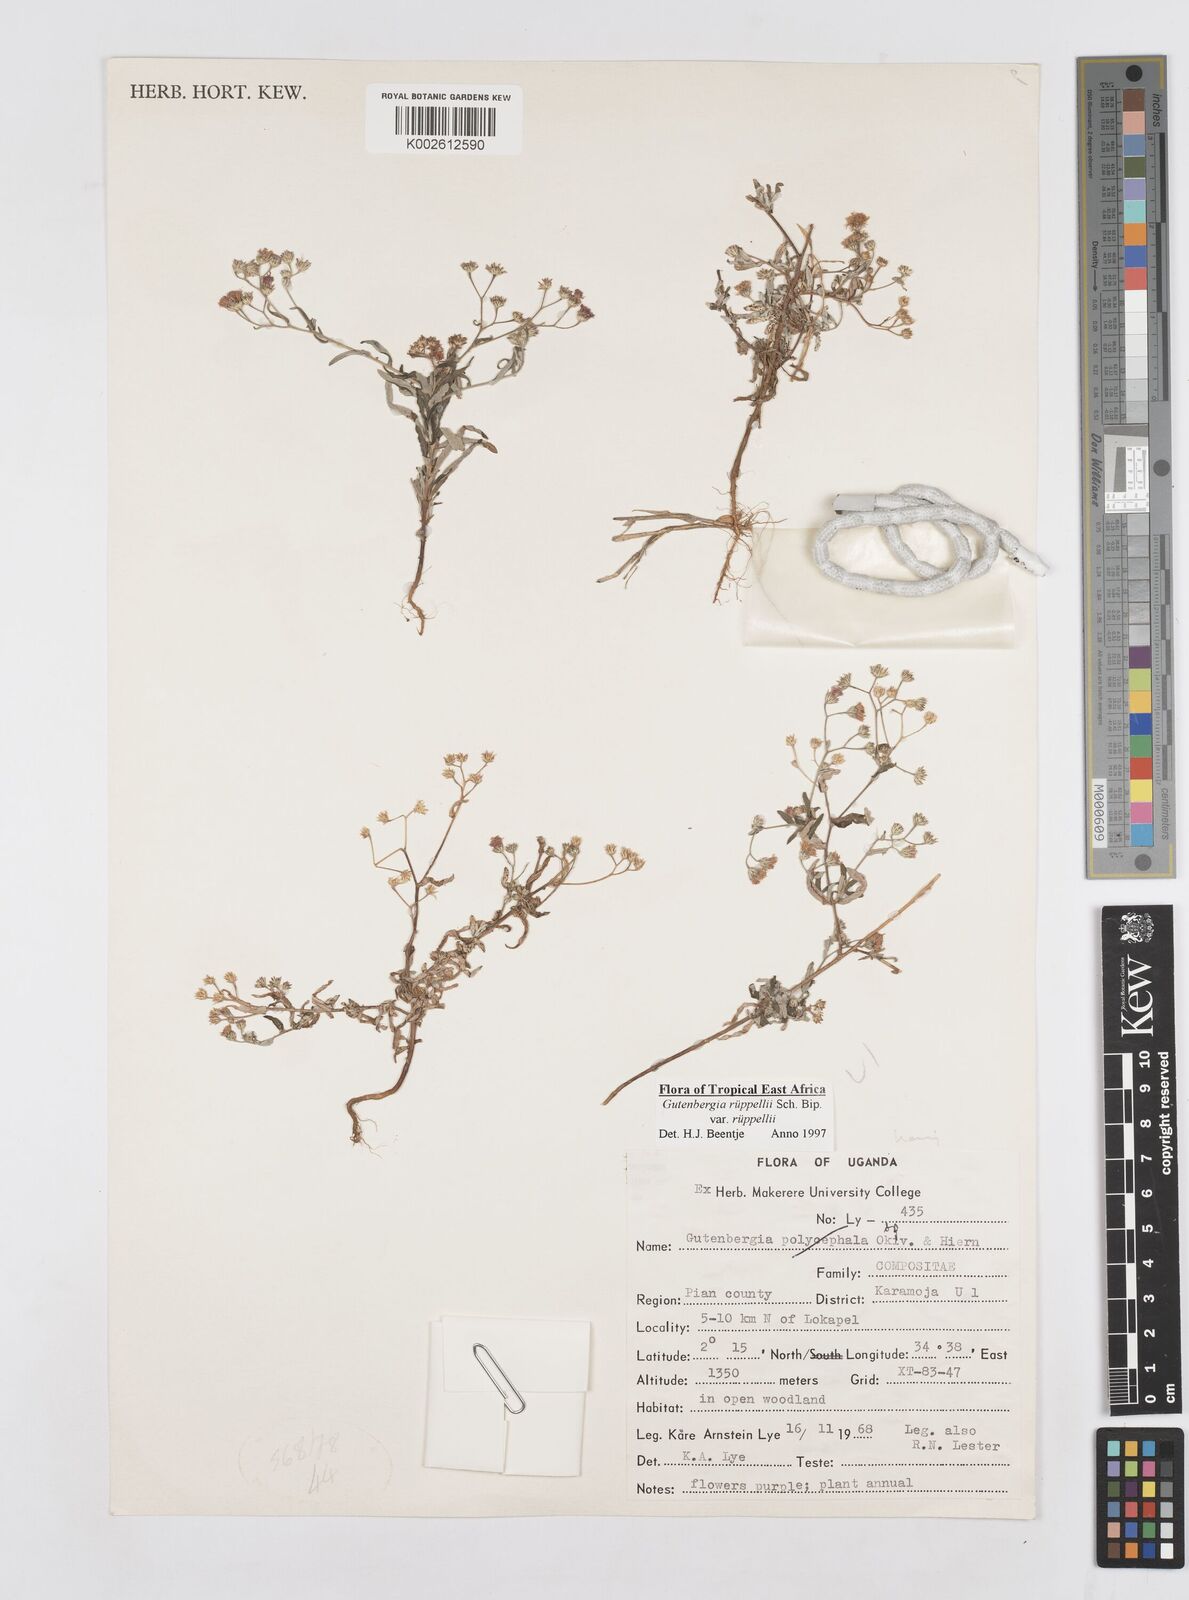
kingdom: Plantae
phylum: Tracheophyta
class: Magnoliopsida
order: Asterales
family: Asteraceae
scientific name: Asteraceae
